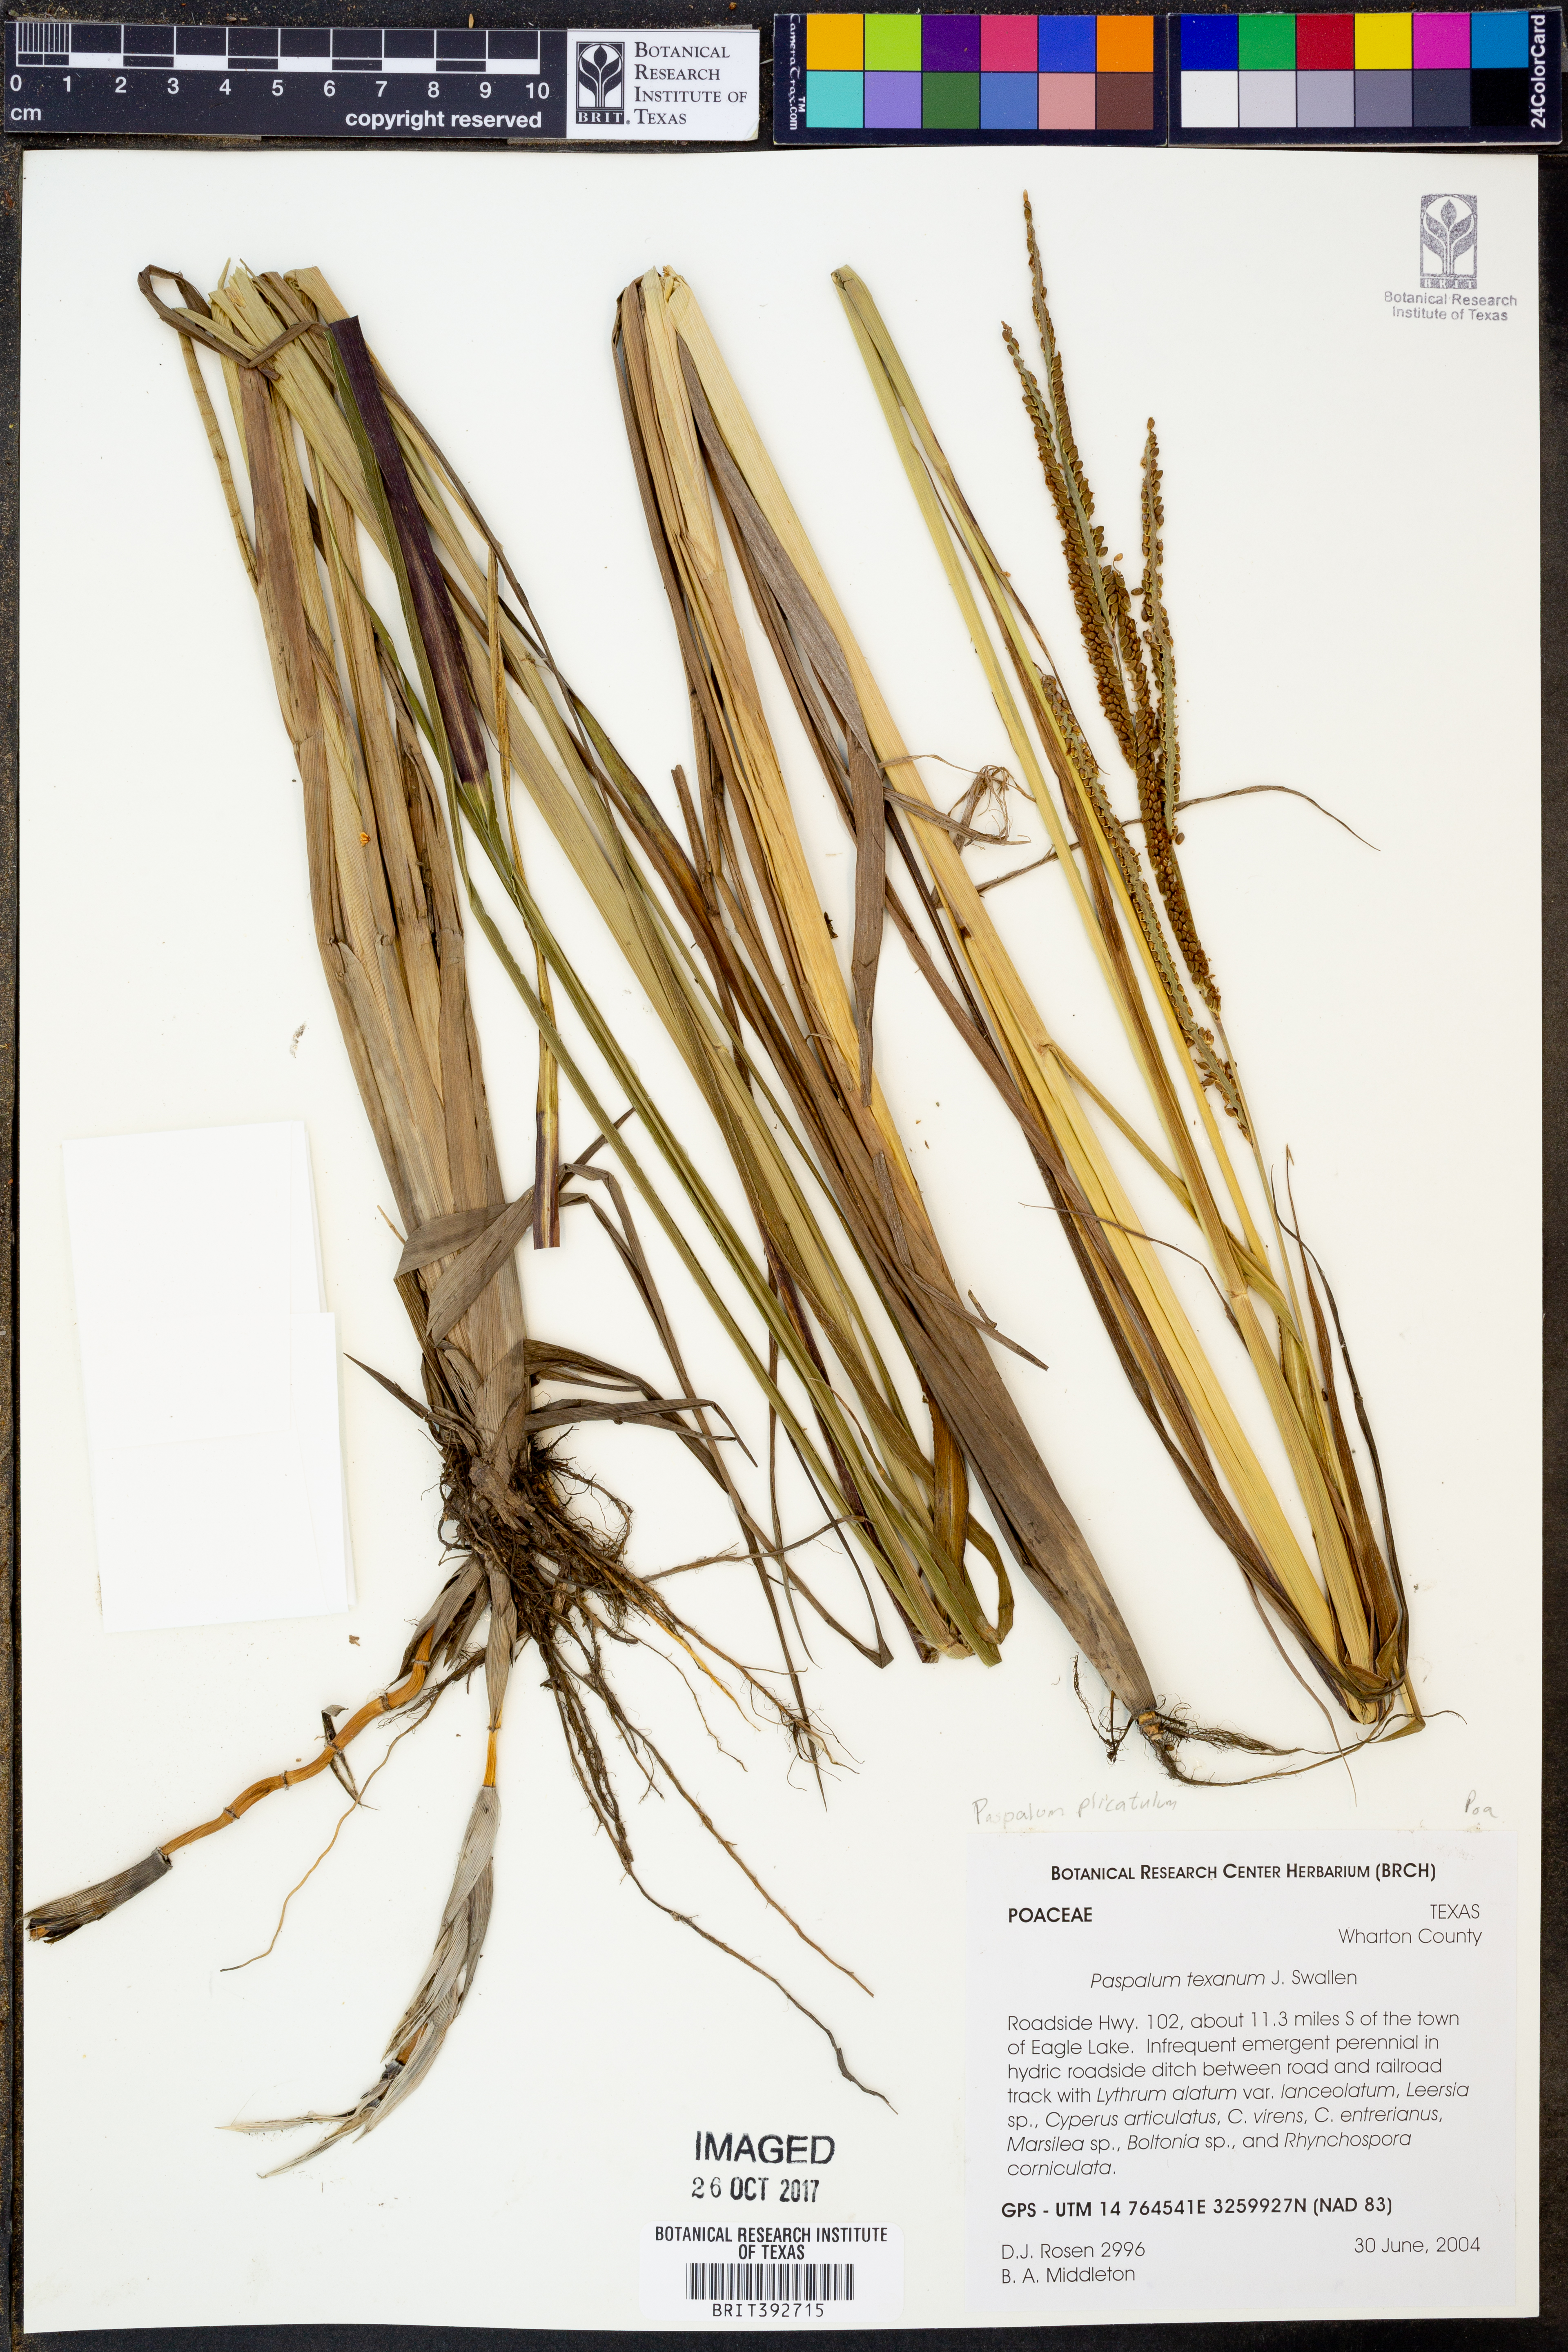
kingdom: Plantae
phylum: Tracheophyta
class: Liliopsida
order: Poales
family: Poaceae
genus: Paspalum
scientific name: Paspalum plicatulum
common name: Top paspalum
